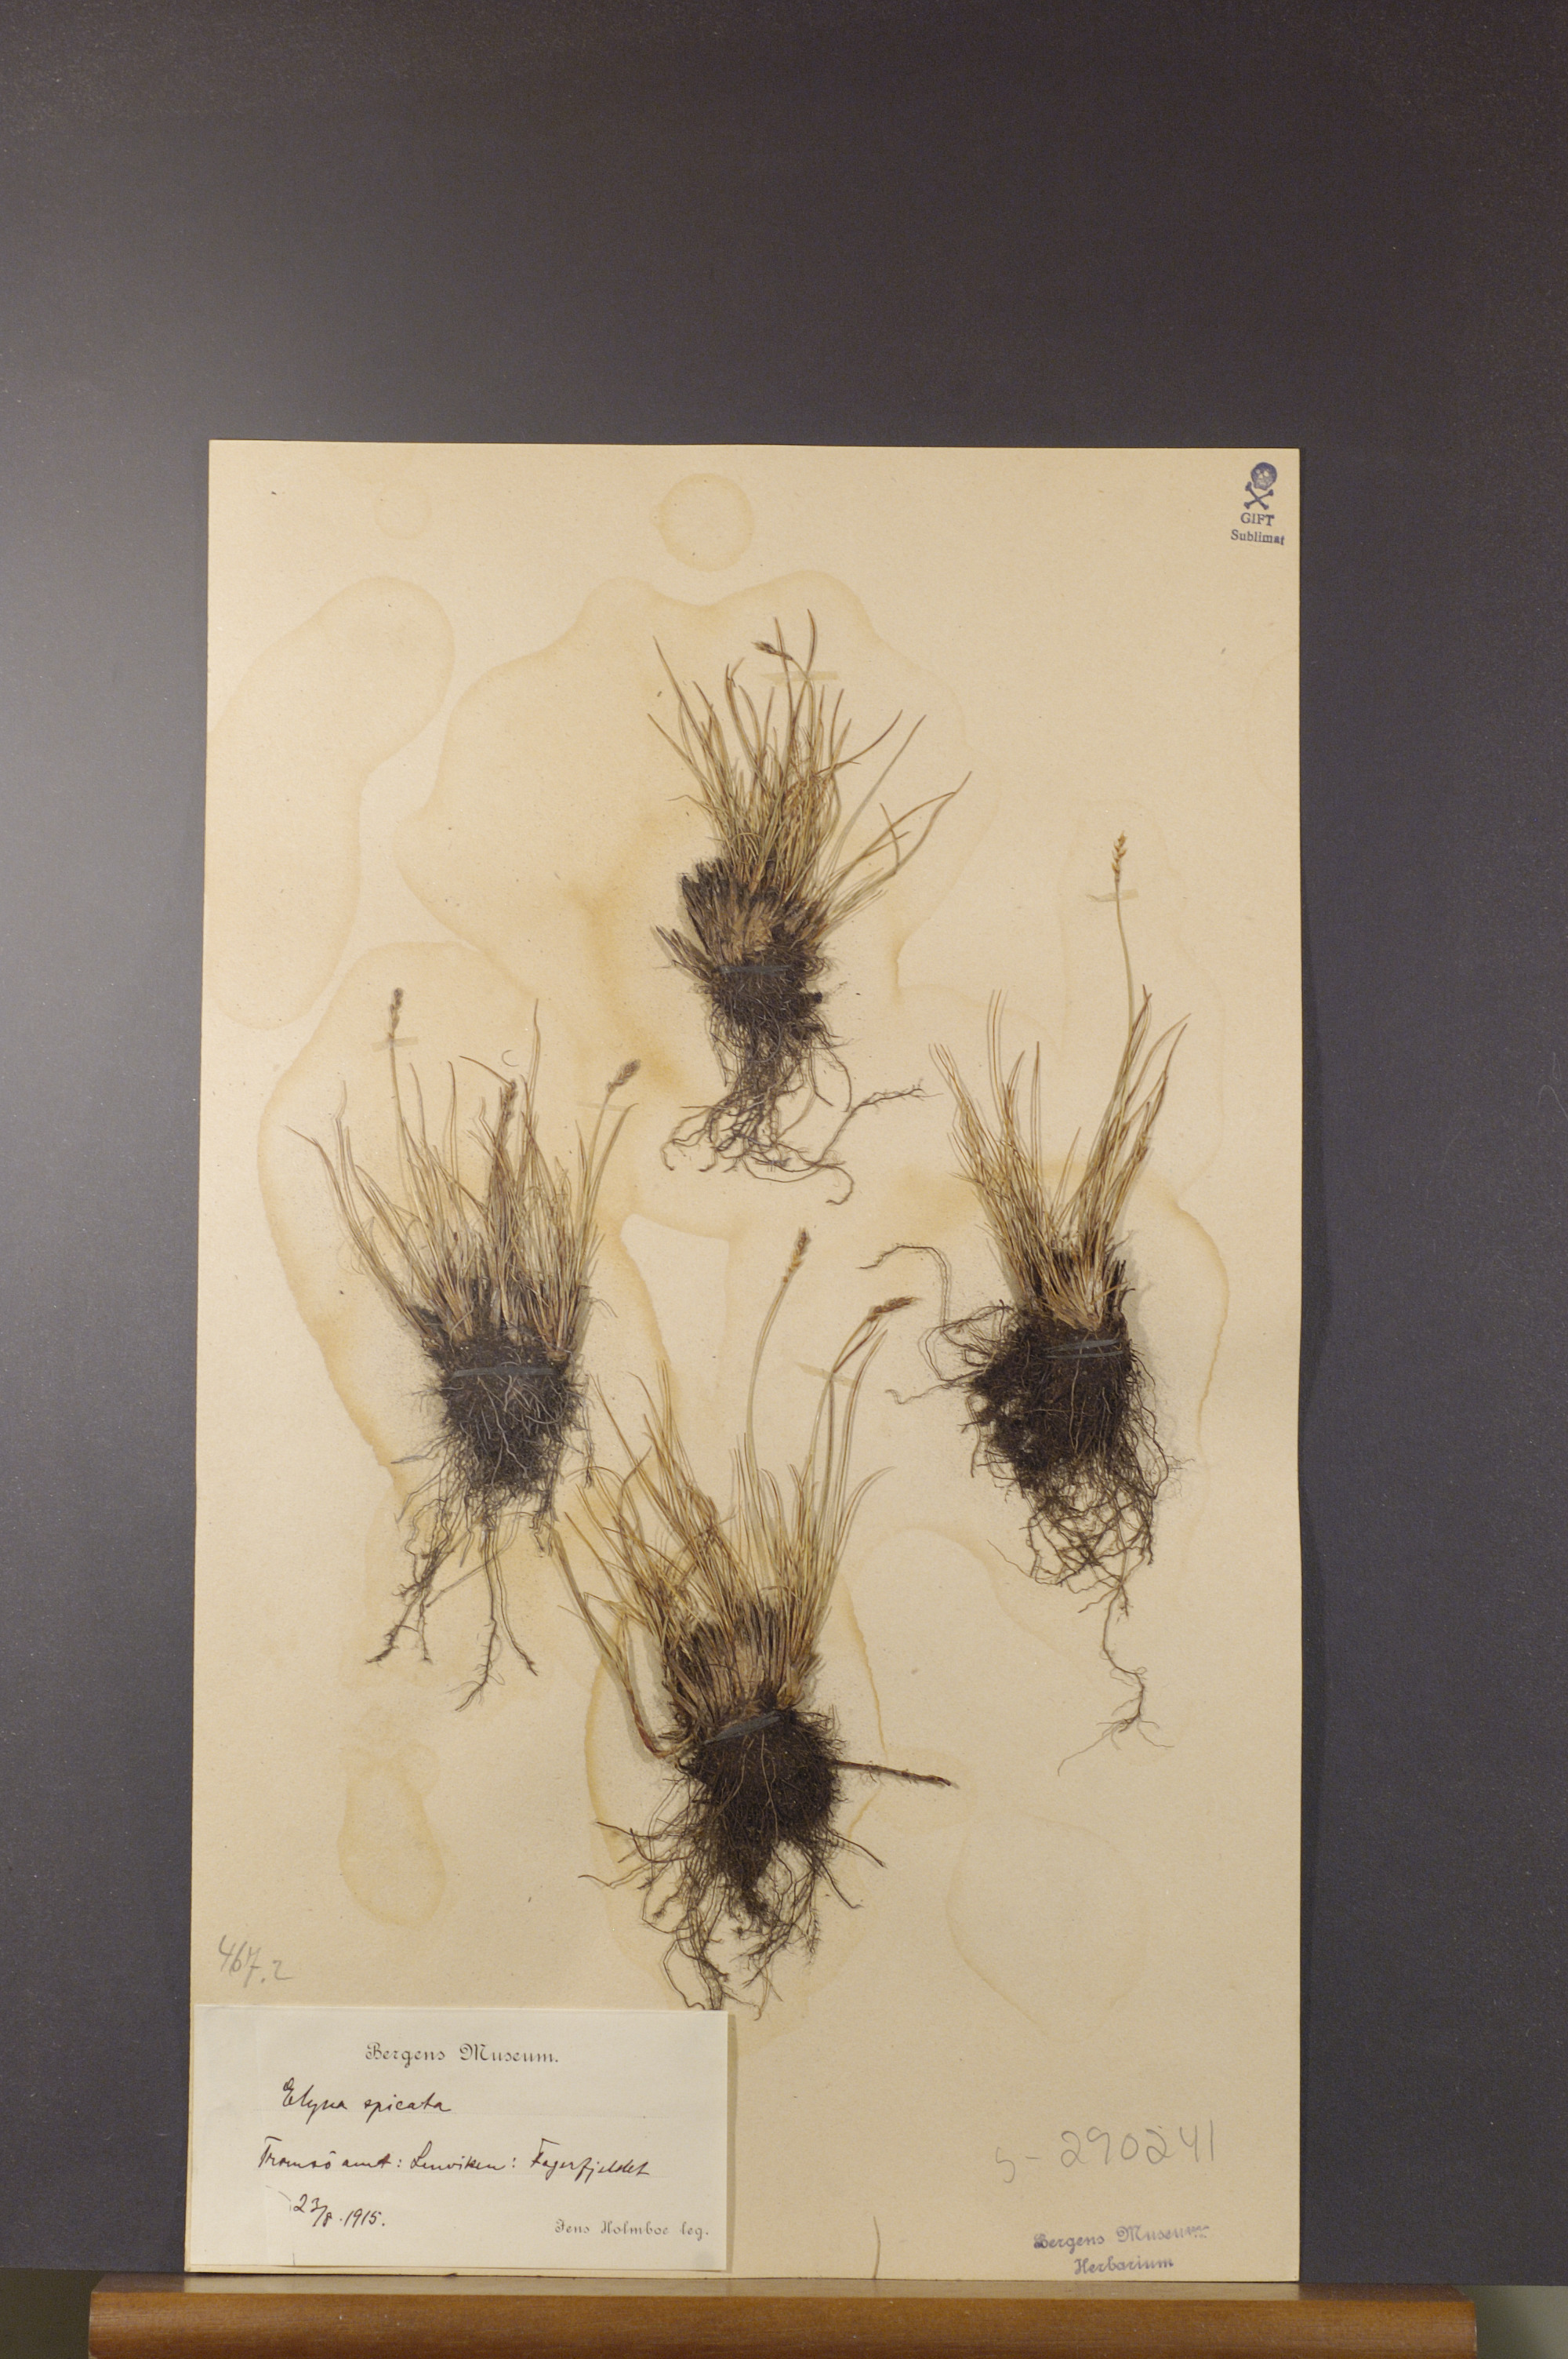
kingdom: Plantae
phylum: Tracheophyta
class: Liliopsida
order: Poales
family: Cyperaceae
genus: Carex
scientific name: Carex myosuroides
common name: Bellard's bog sedge
